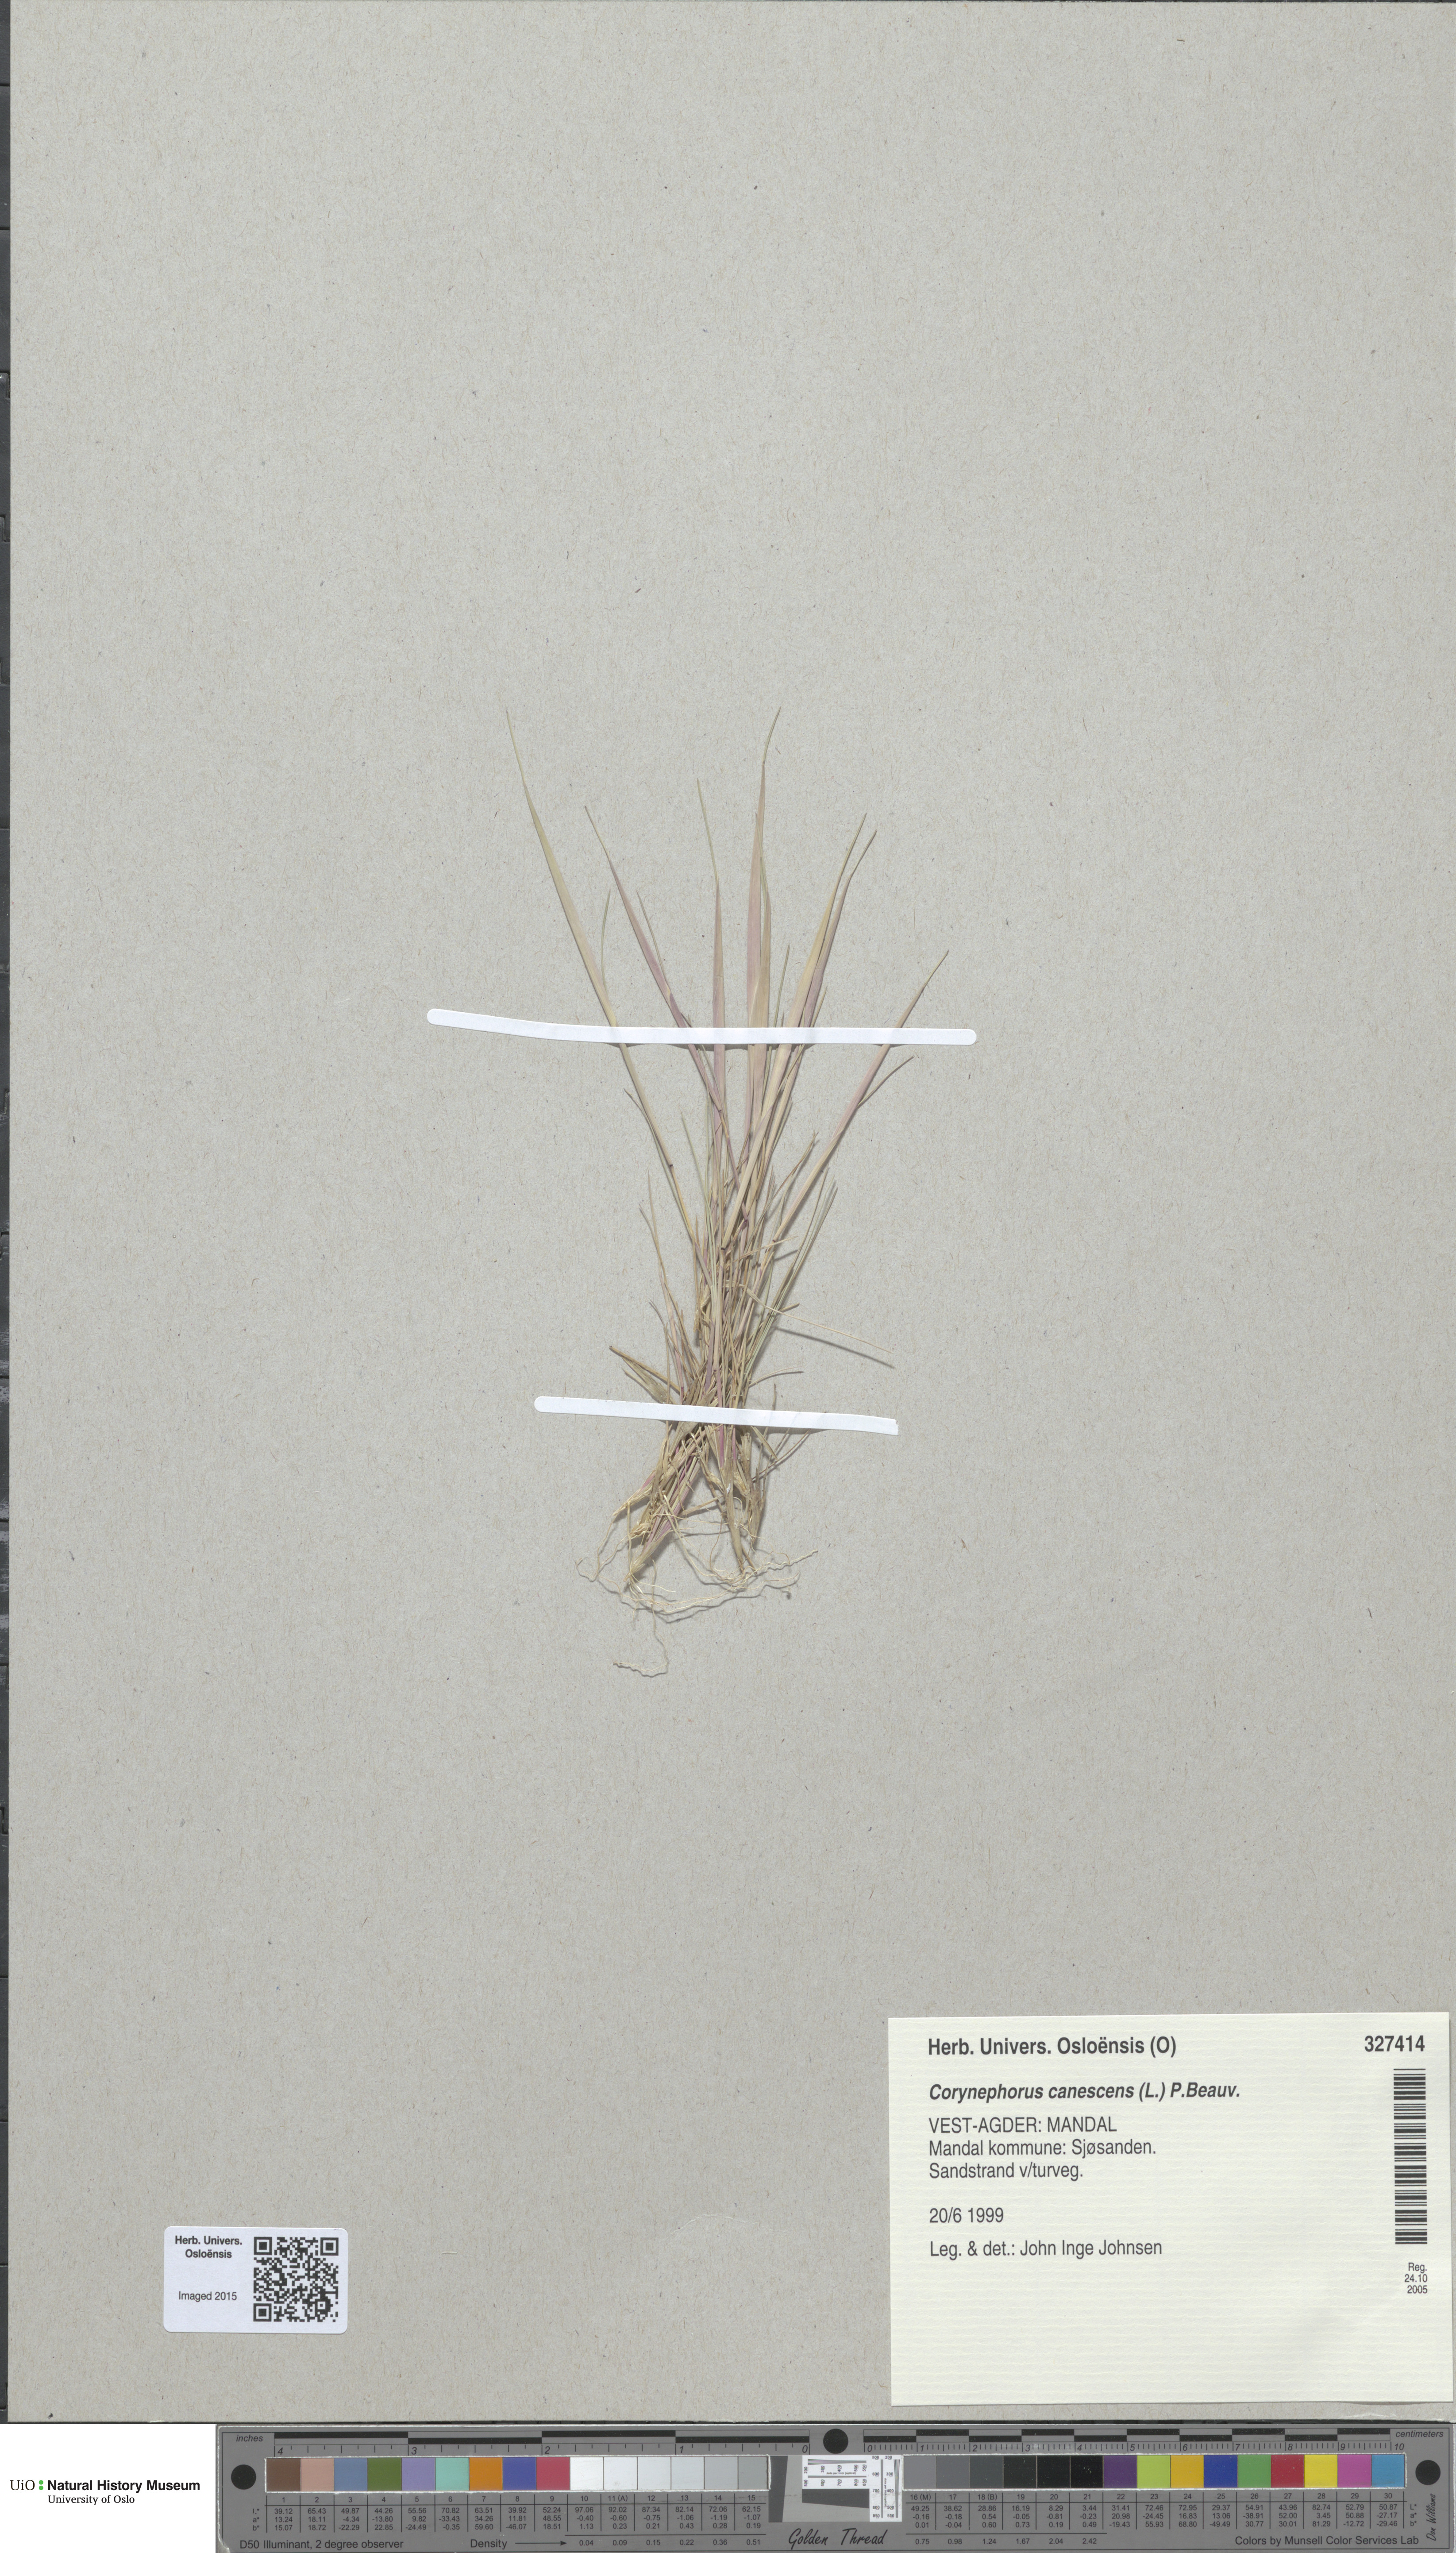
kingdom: Plantae
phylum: Tracheophyta
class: Liliopsida
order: Poales
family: Poaceae
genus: Corynephorus
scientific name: Corynephorus canescens
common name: Grey hair-grass
